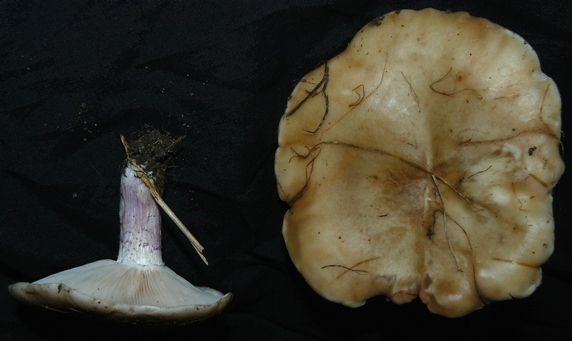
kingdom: Fungi
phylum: Basidiomycota
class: Agaricomycetes
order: Agaricales
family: Tricholomataceae
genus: Lepista
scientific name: Lepista personata
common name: bleg hekseringshat
